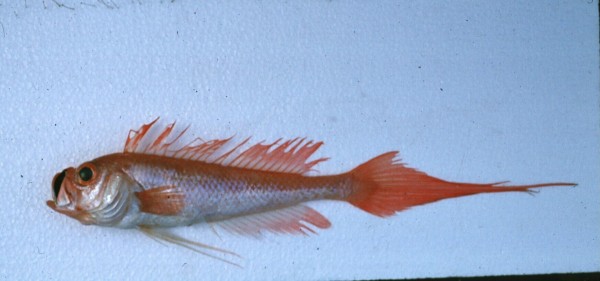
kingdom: Animalia
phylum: Chordata
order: Perciformes
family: Cepolidae
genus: Owstonia
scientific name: Owstonia weberi
